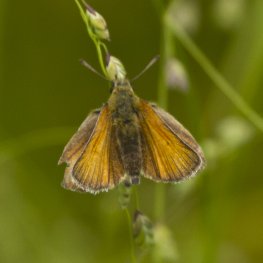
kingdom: Animalia
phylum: Arthropoda
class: Insecta
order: Lepidoptera
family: Hesperiidae
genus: Thymelicus
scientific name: Thymelicus lineola
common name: European Skipper
